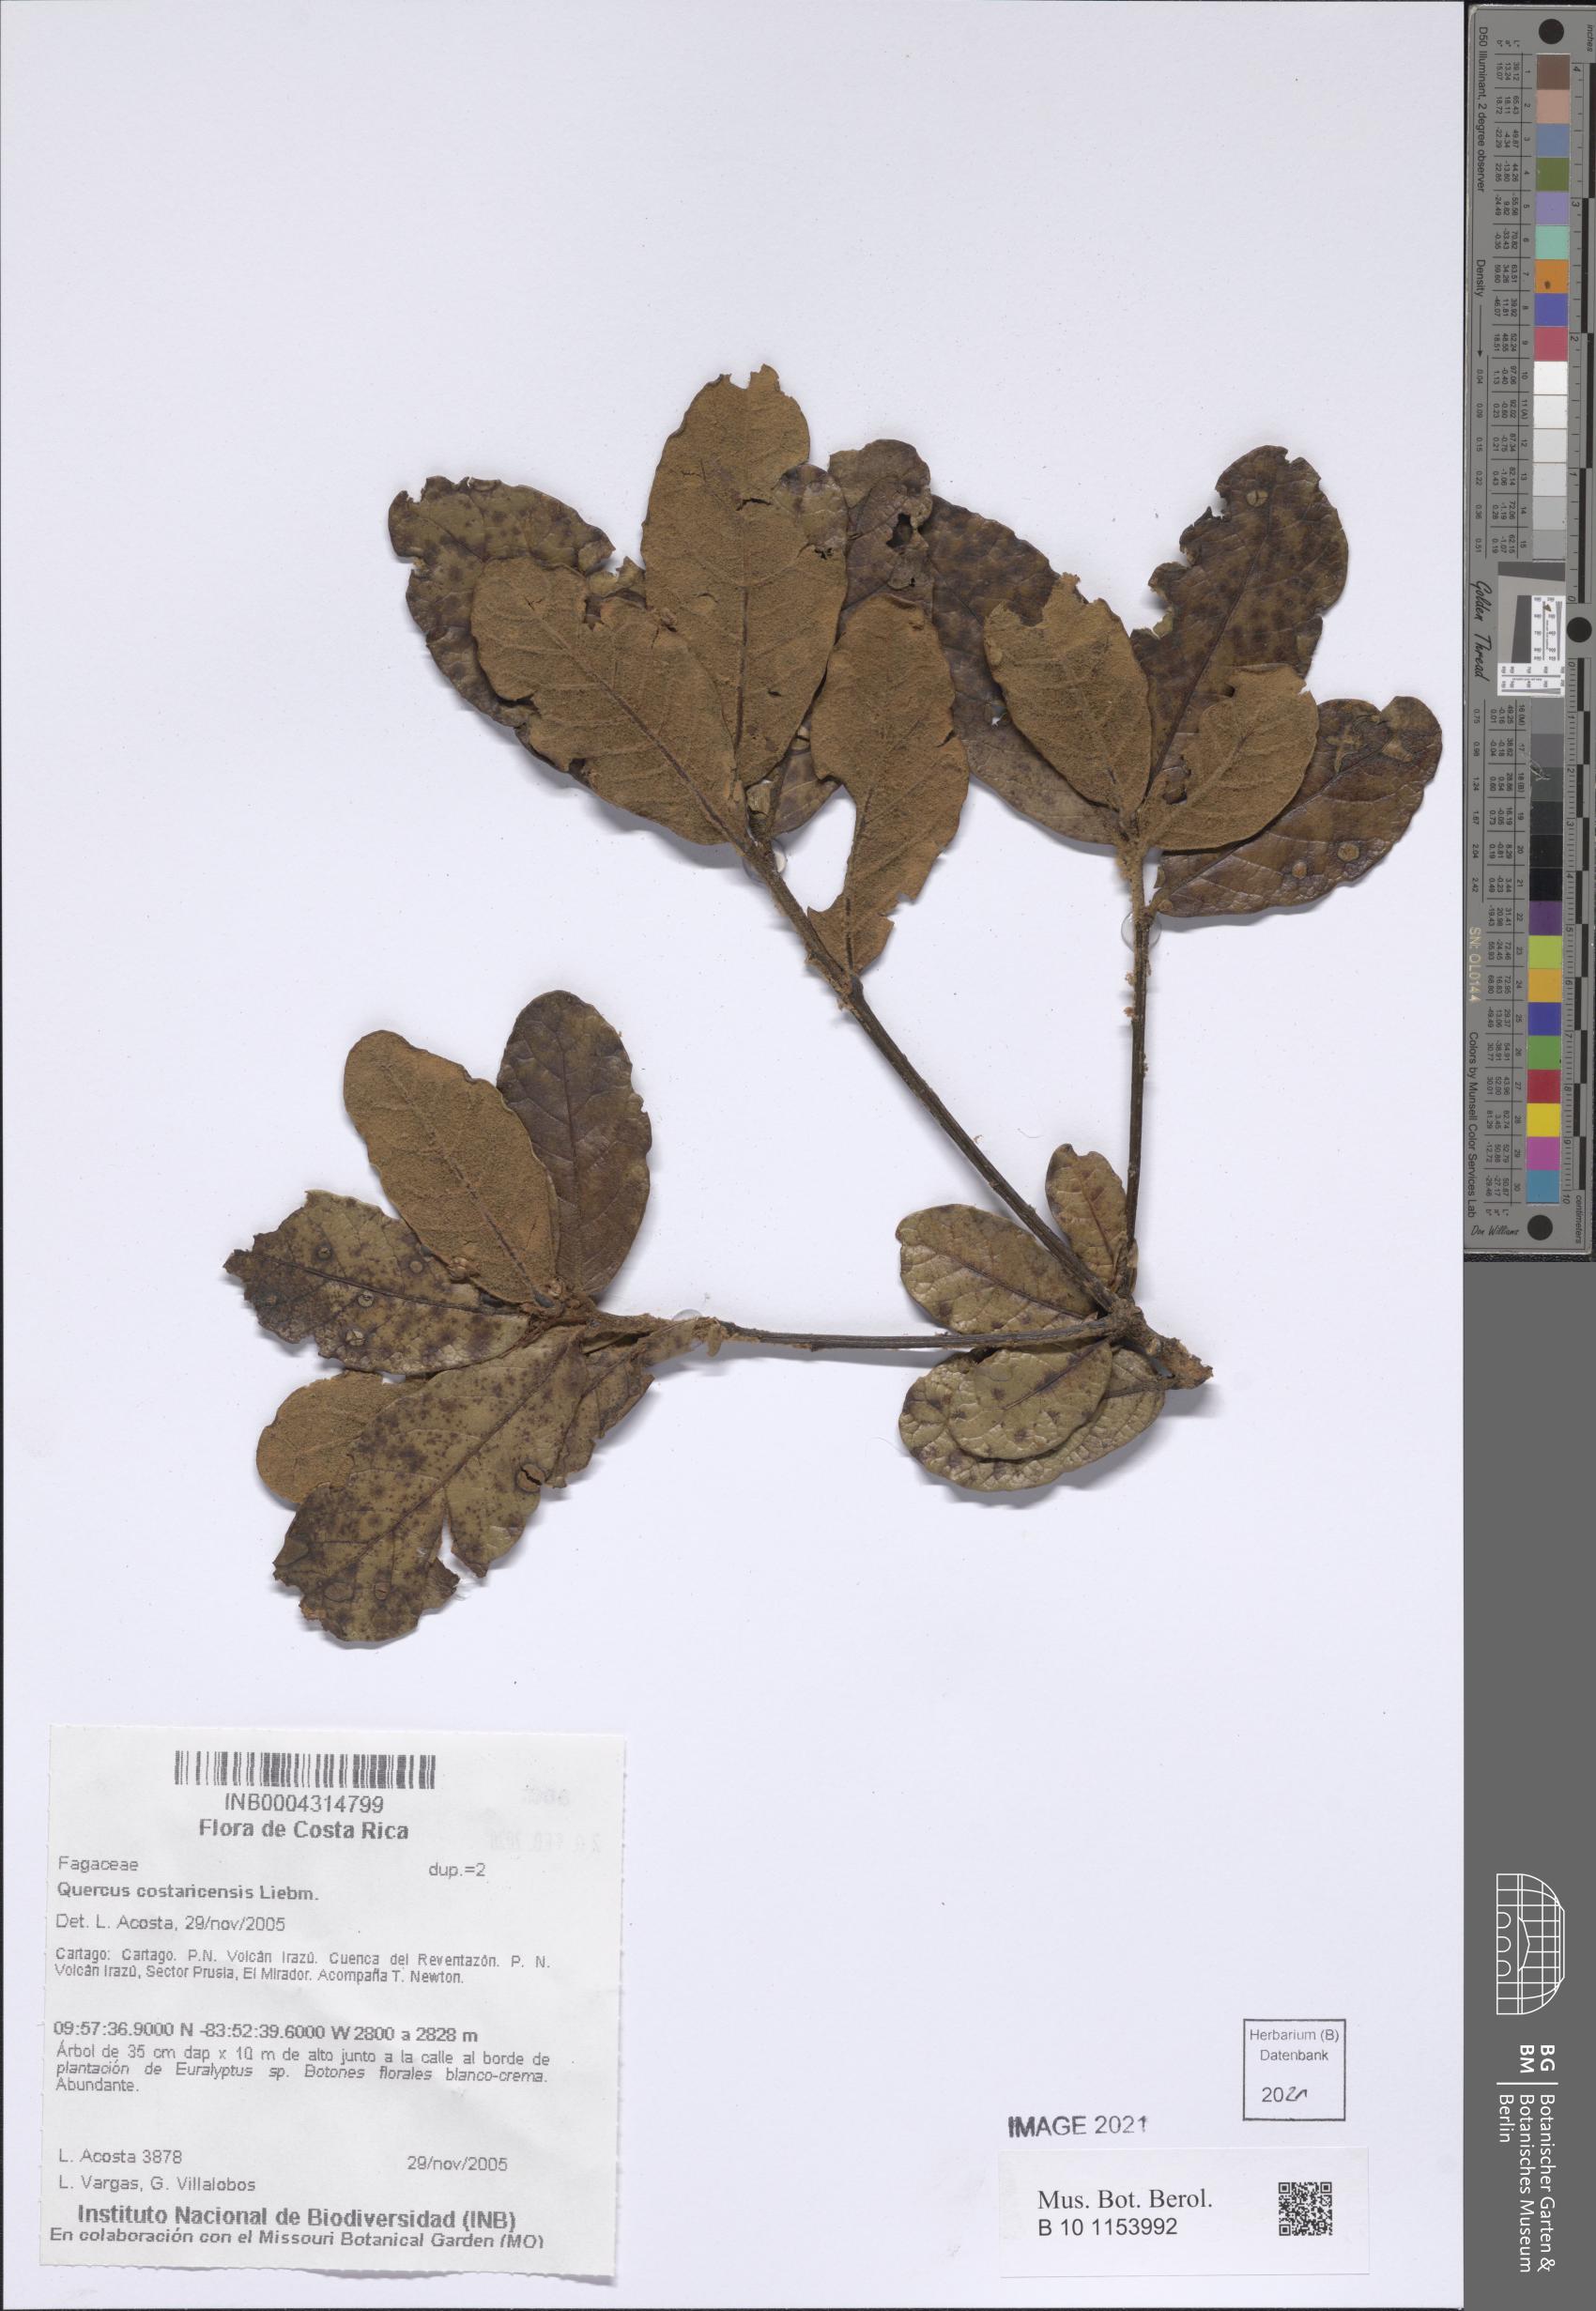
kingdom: Plantae
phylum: Tracheophyta
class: Magnoliopsida
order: Fagales
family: Fagaceae
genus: Quercus
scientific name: Quercus costaricensis
